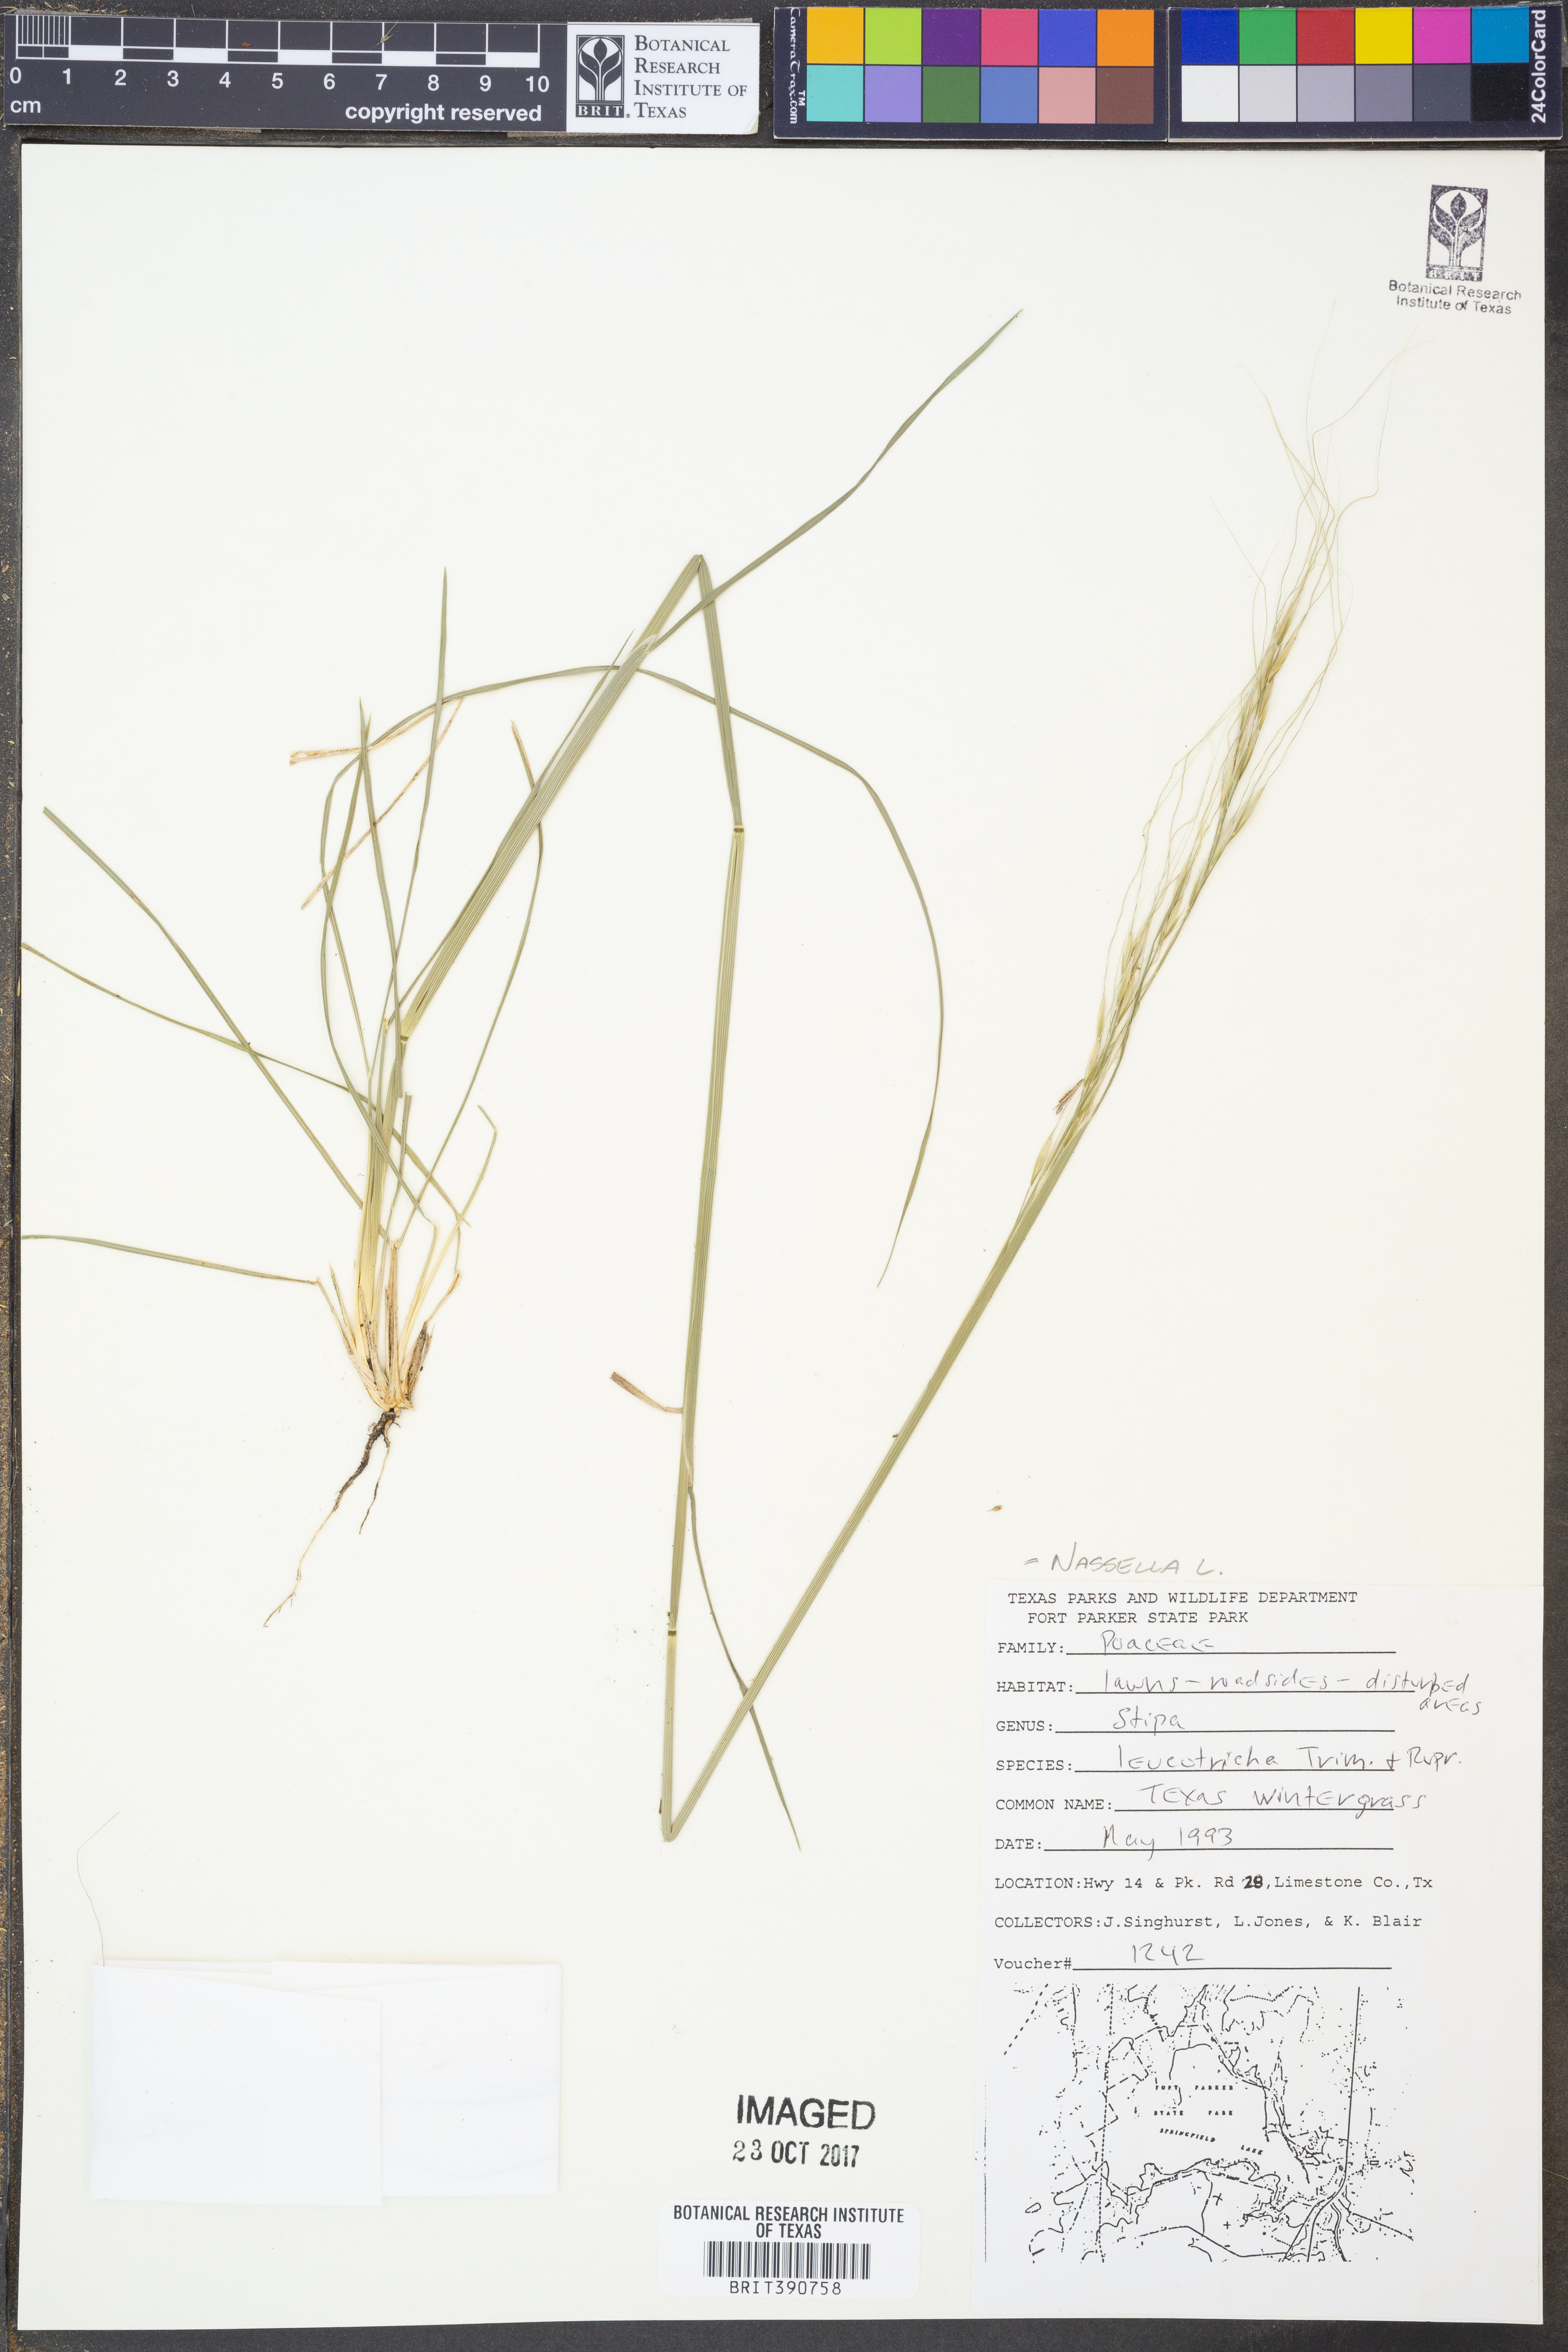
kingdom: Plantae
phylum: Tracheophyta
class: Liliopsida
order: Poales
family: Poaceae
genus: Nassella
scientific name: Nassella leucotricha
